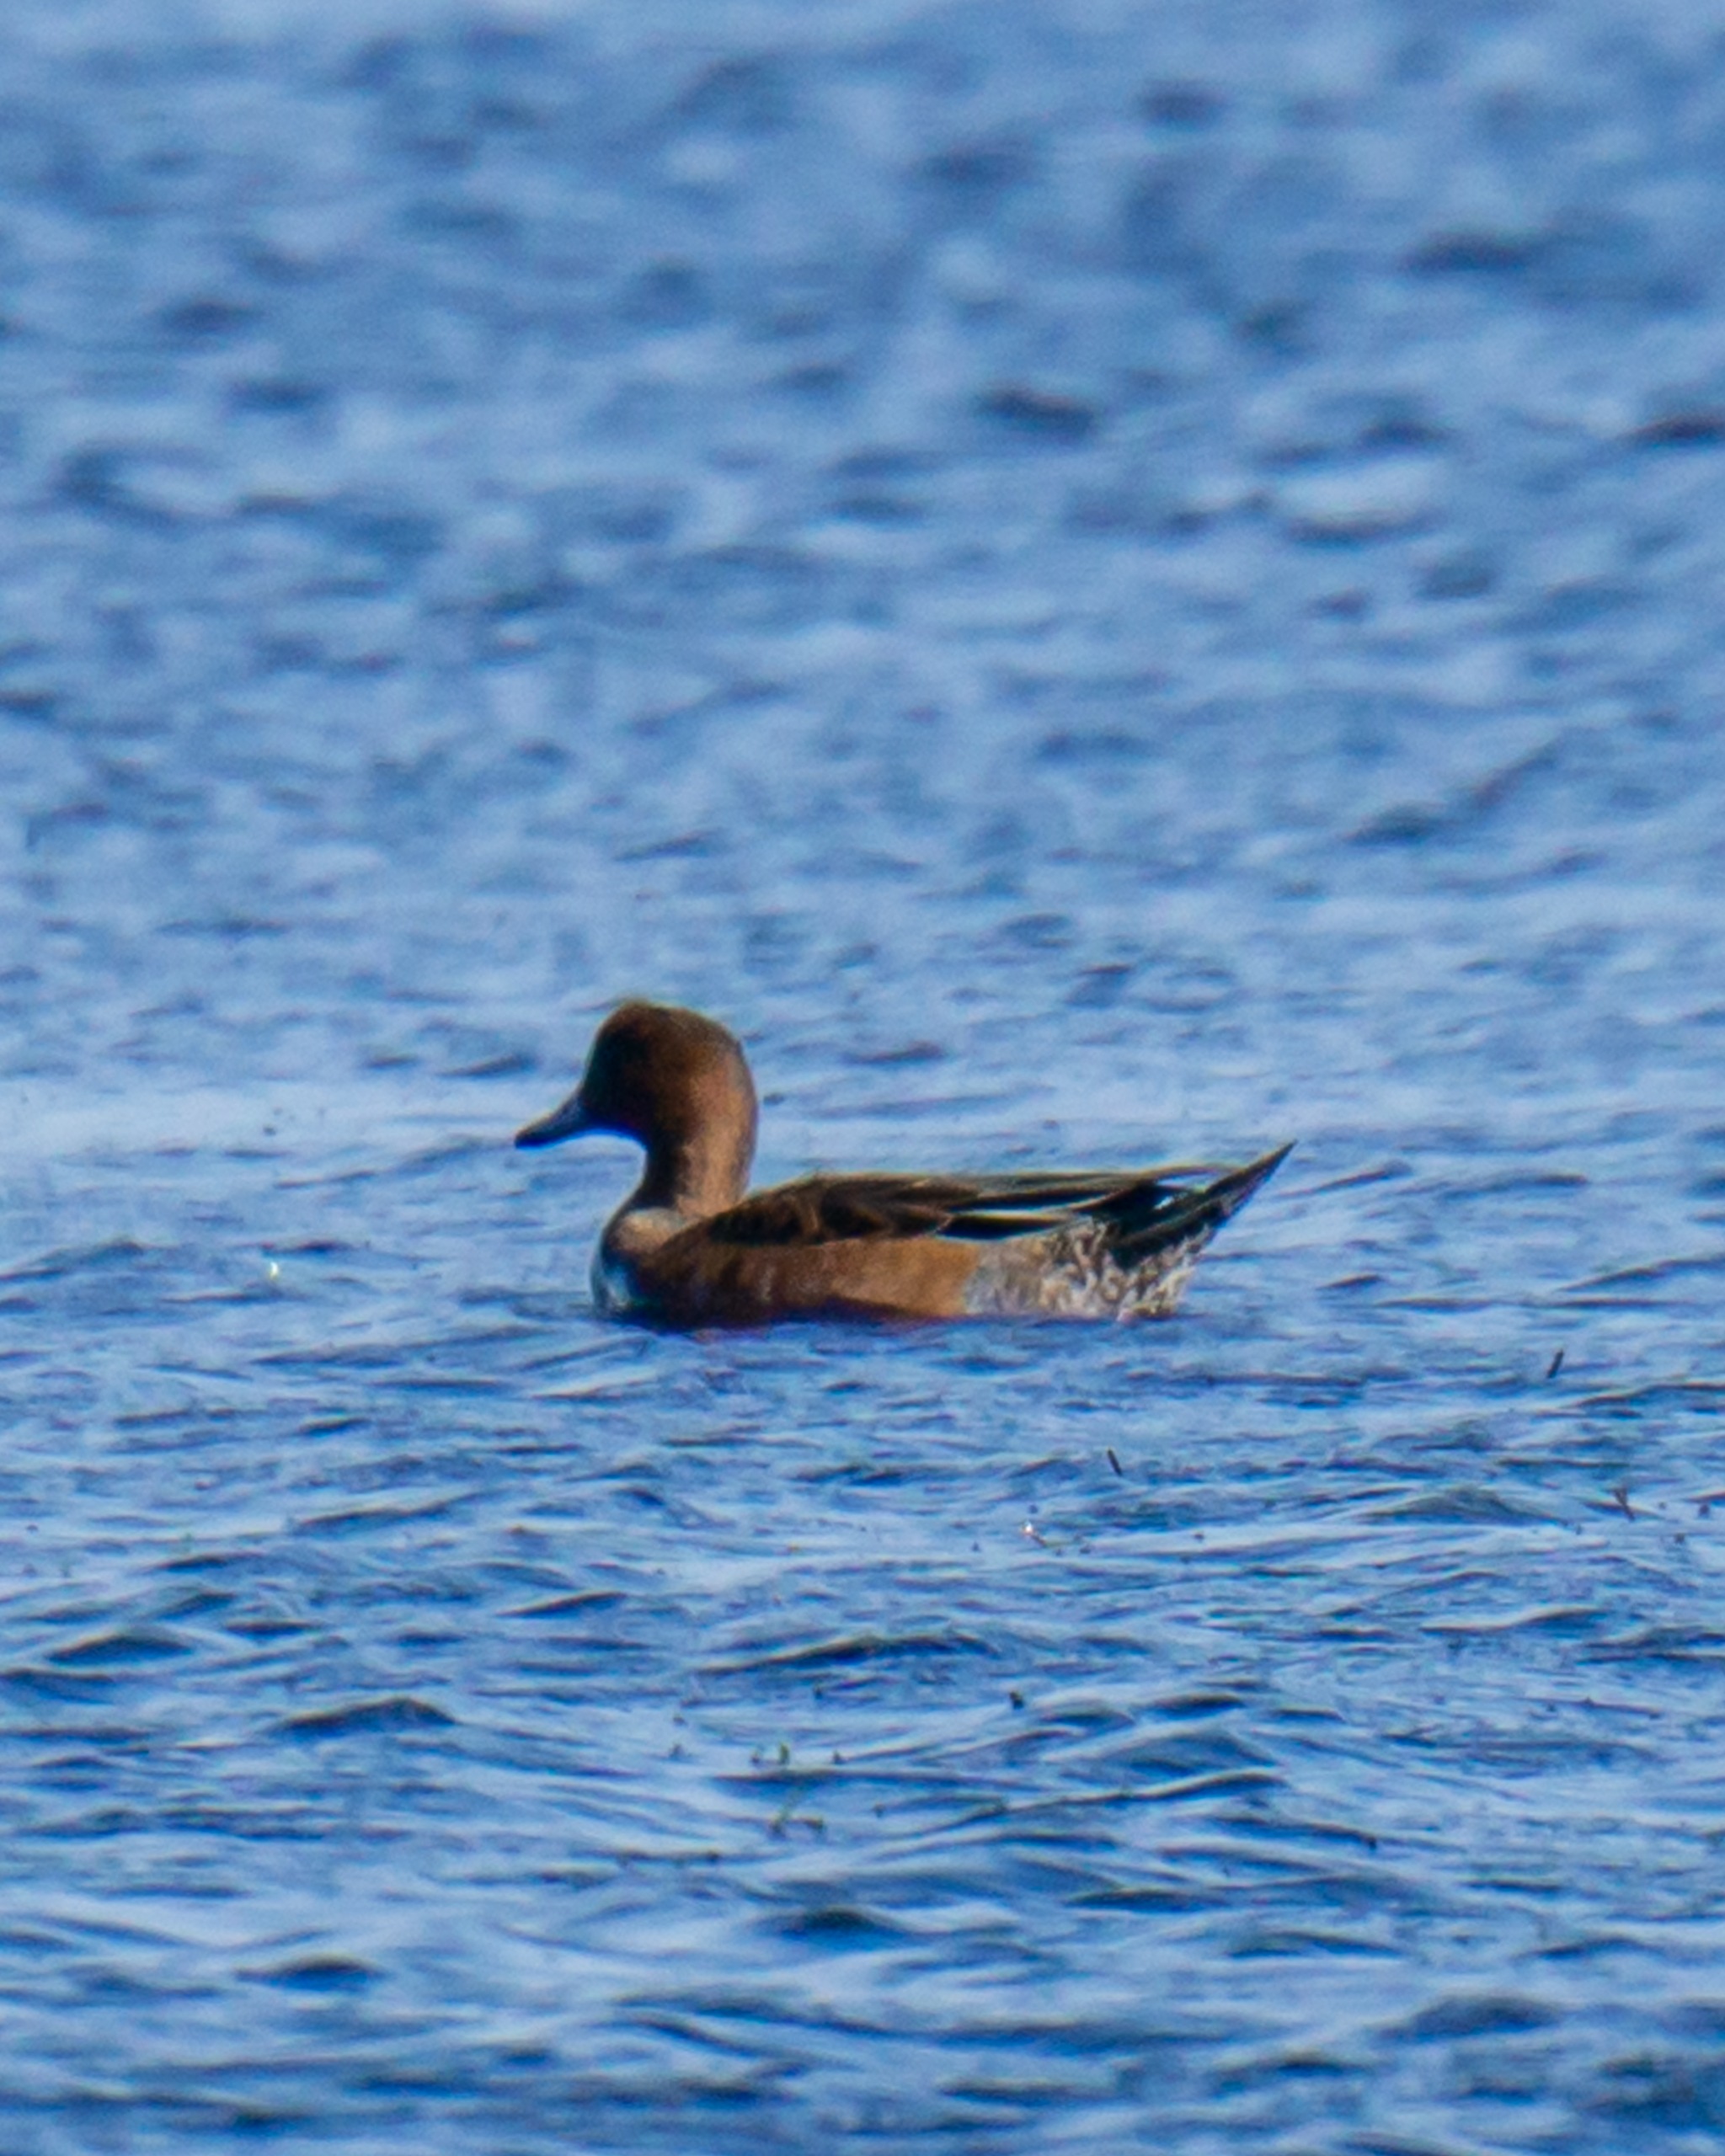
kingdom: Animalia
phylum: Chordata
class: Aves
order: Anseriformes
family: Anatidae
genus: Mareca
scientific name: Mareca penelope
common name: Pibeand
